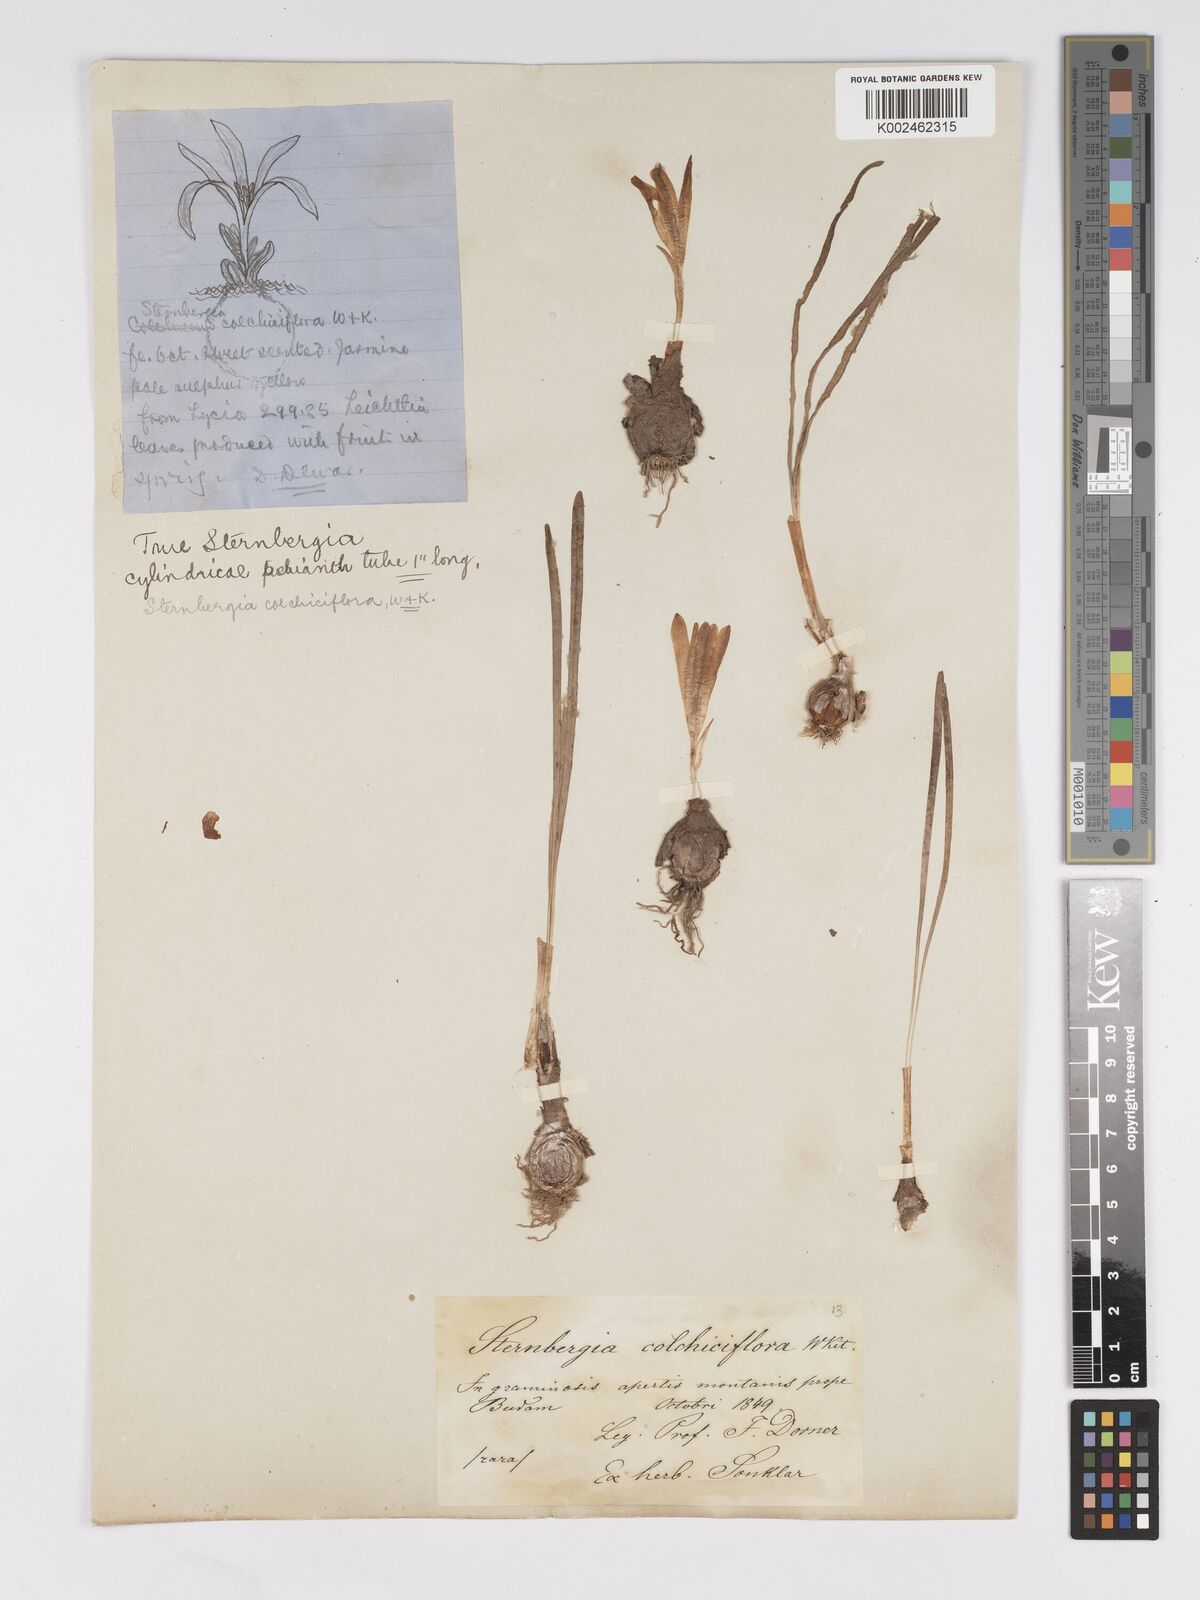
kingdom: Plantae
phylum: Tracheophyta
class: Liliopsida
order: Asparagales
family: Amaryllidaceae
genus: Sternbergia
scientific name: Sternbergia colchiciflora
